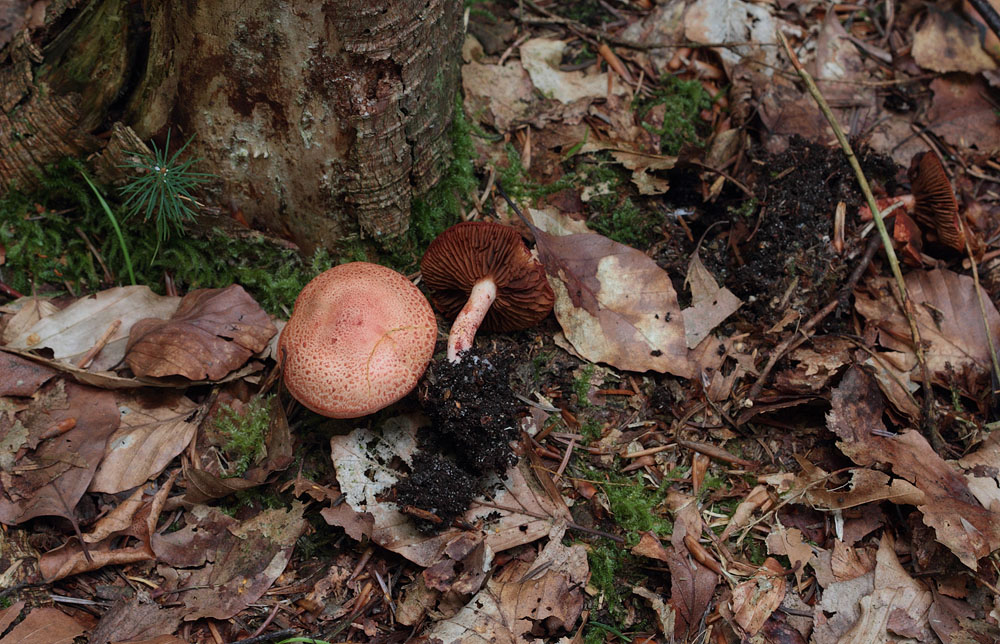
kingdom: Fungi
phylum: Basidiomycota
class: Agaricomycetes
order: Agaricales
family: Cortinariaceae
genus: Cortinarius
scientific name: Cortinarius bolaris
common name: cinnoberskællet slørhat
